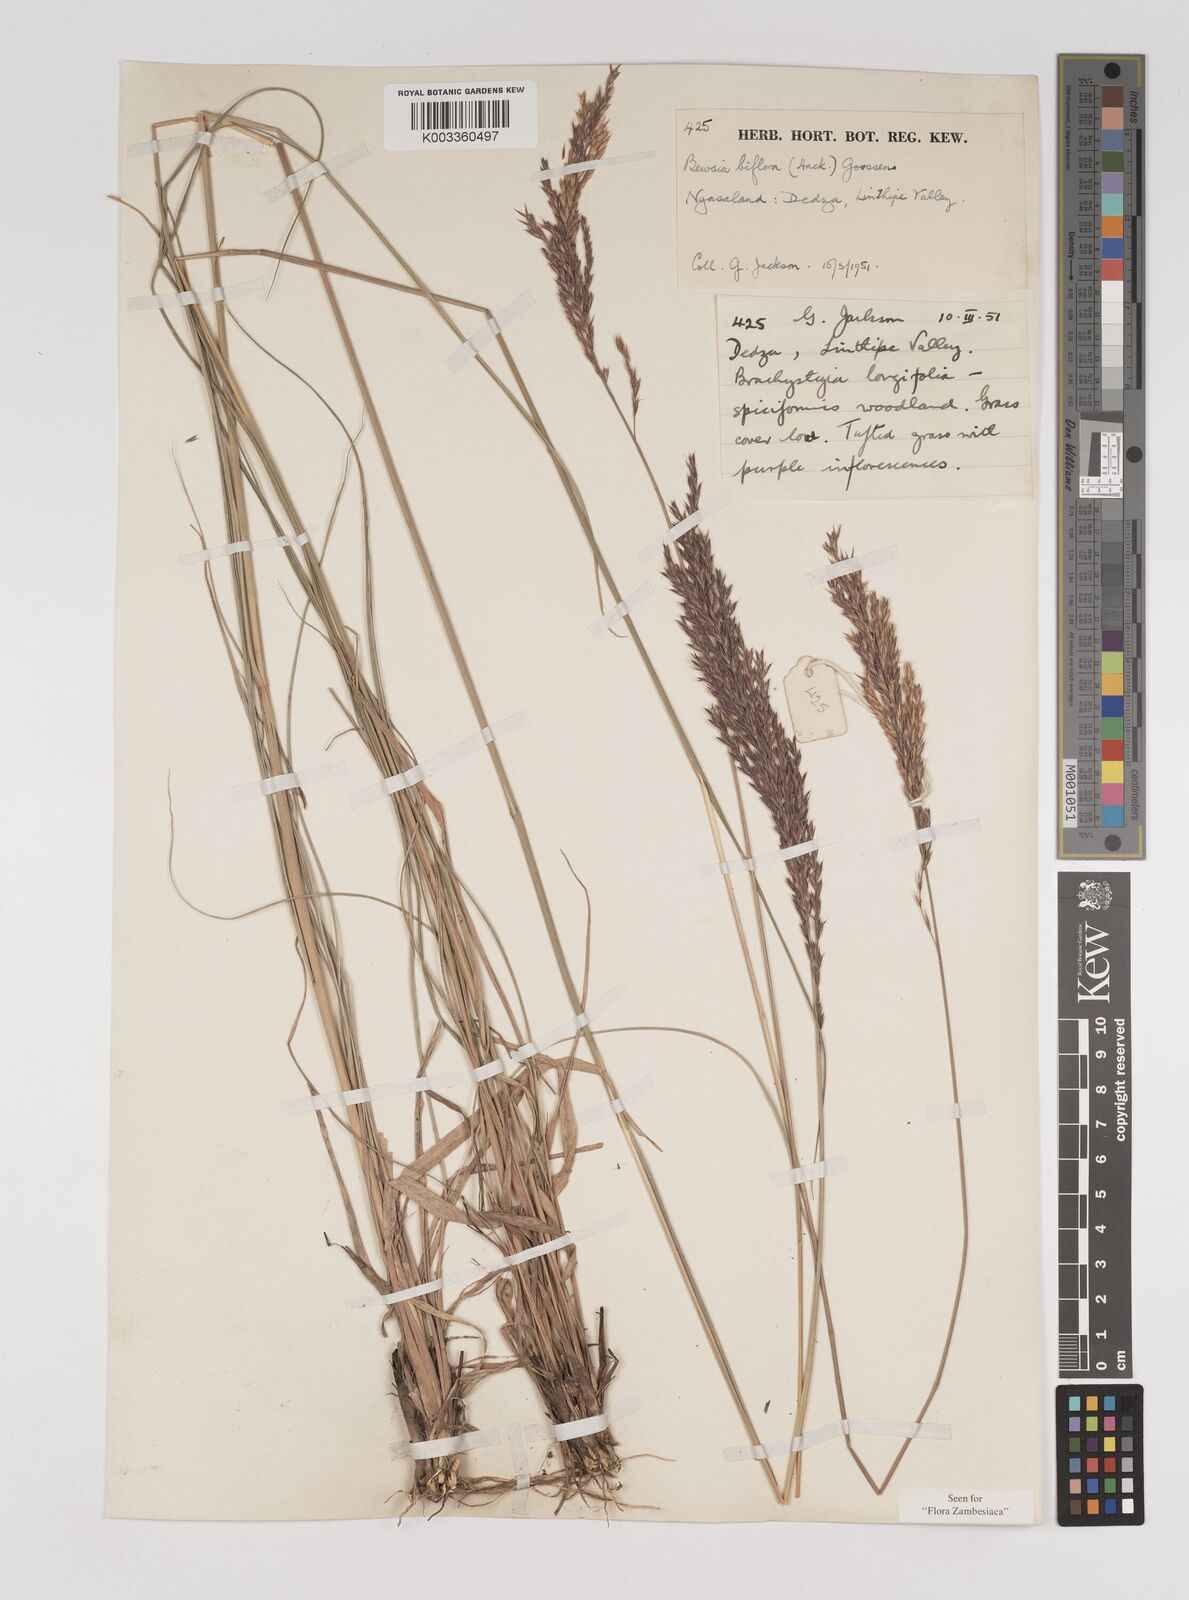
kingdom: Plantae
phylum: Tracheophyta
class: Liliopsida
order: Poales
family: Poaceae
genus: Bewsia
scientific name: Bewsia biflora
